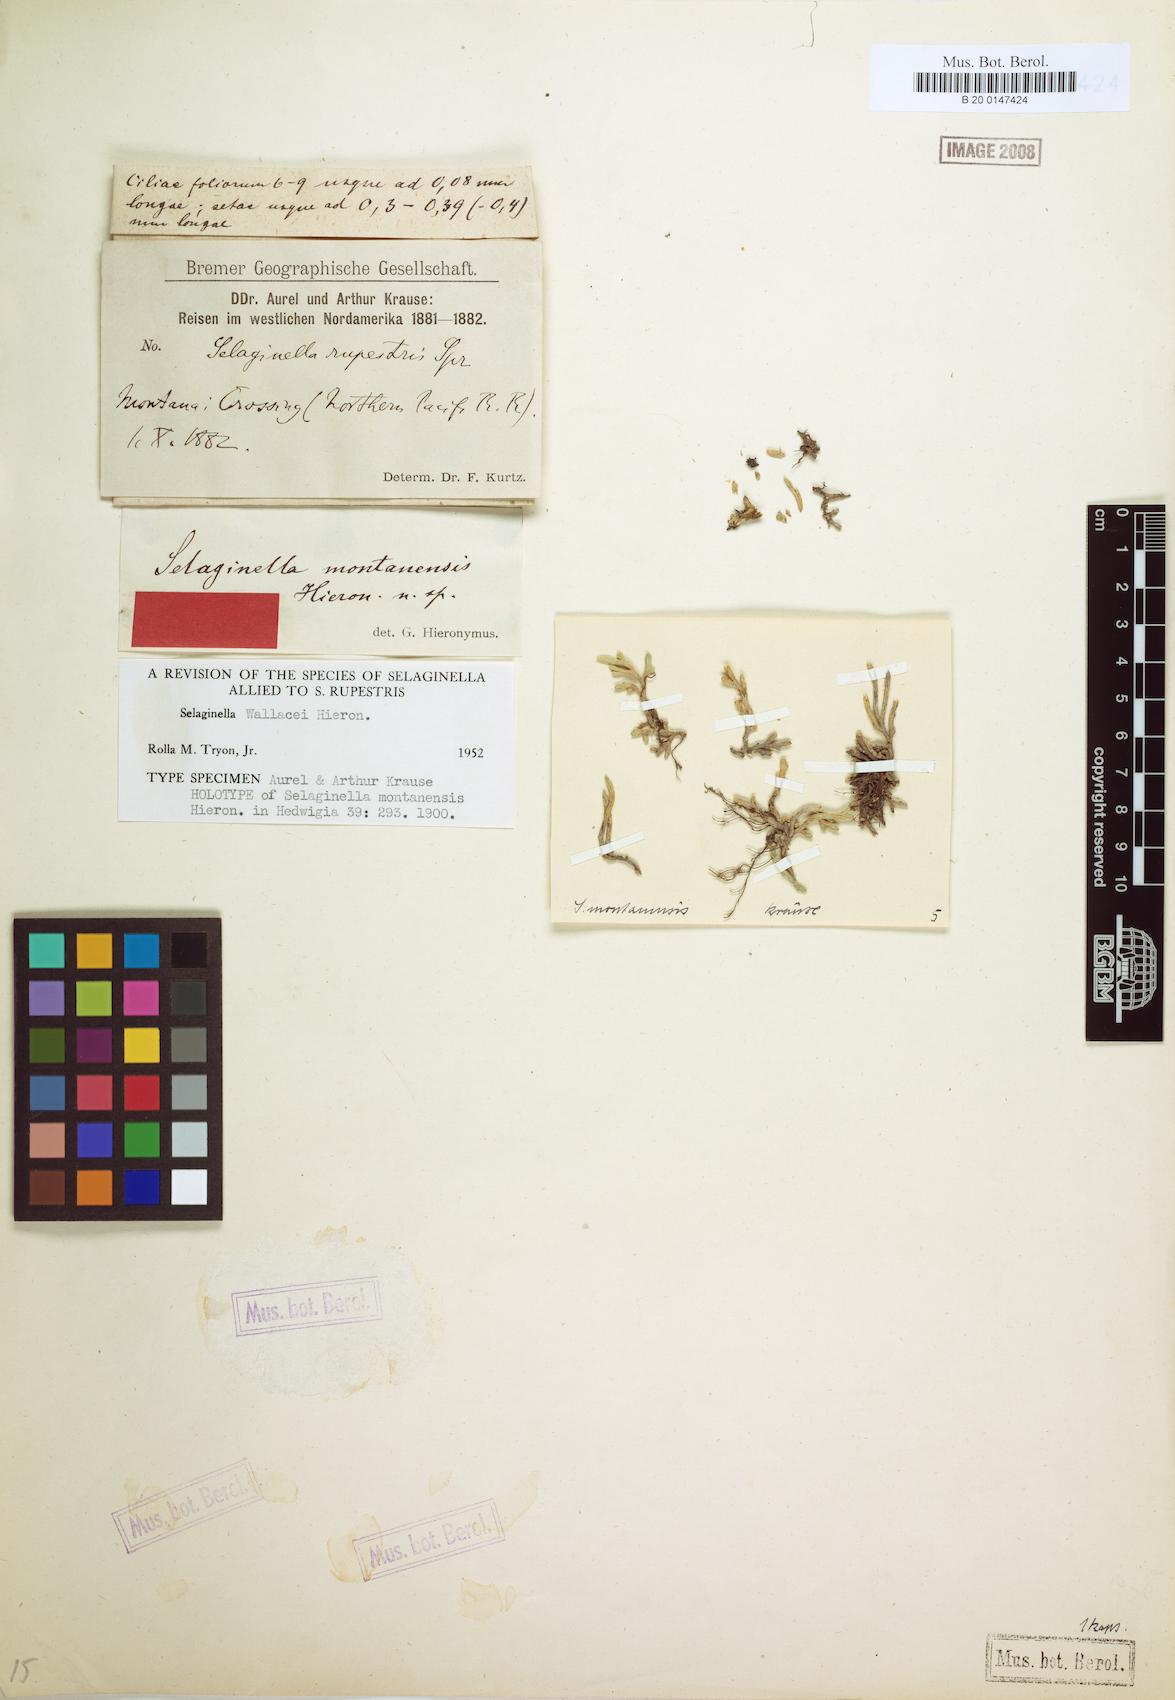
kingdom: Plantae
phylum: Tracheophyta
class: Lycopodiopsida
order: Selaginellales
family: Selaginellaceae
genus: Selaginella
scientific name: Selaginella wallacei
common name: Wallace's selaginella
